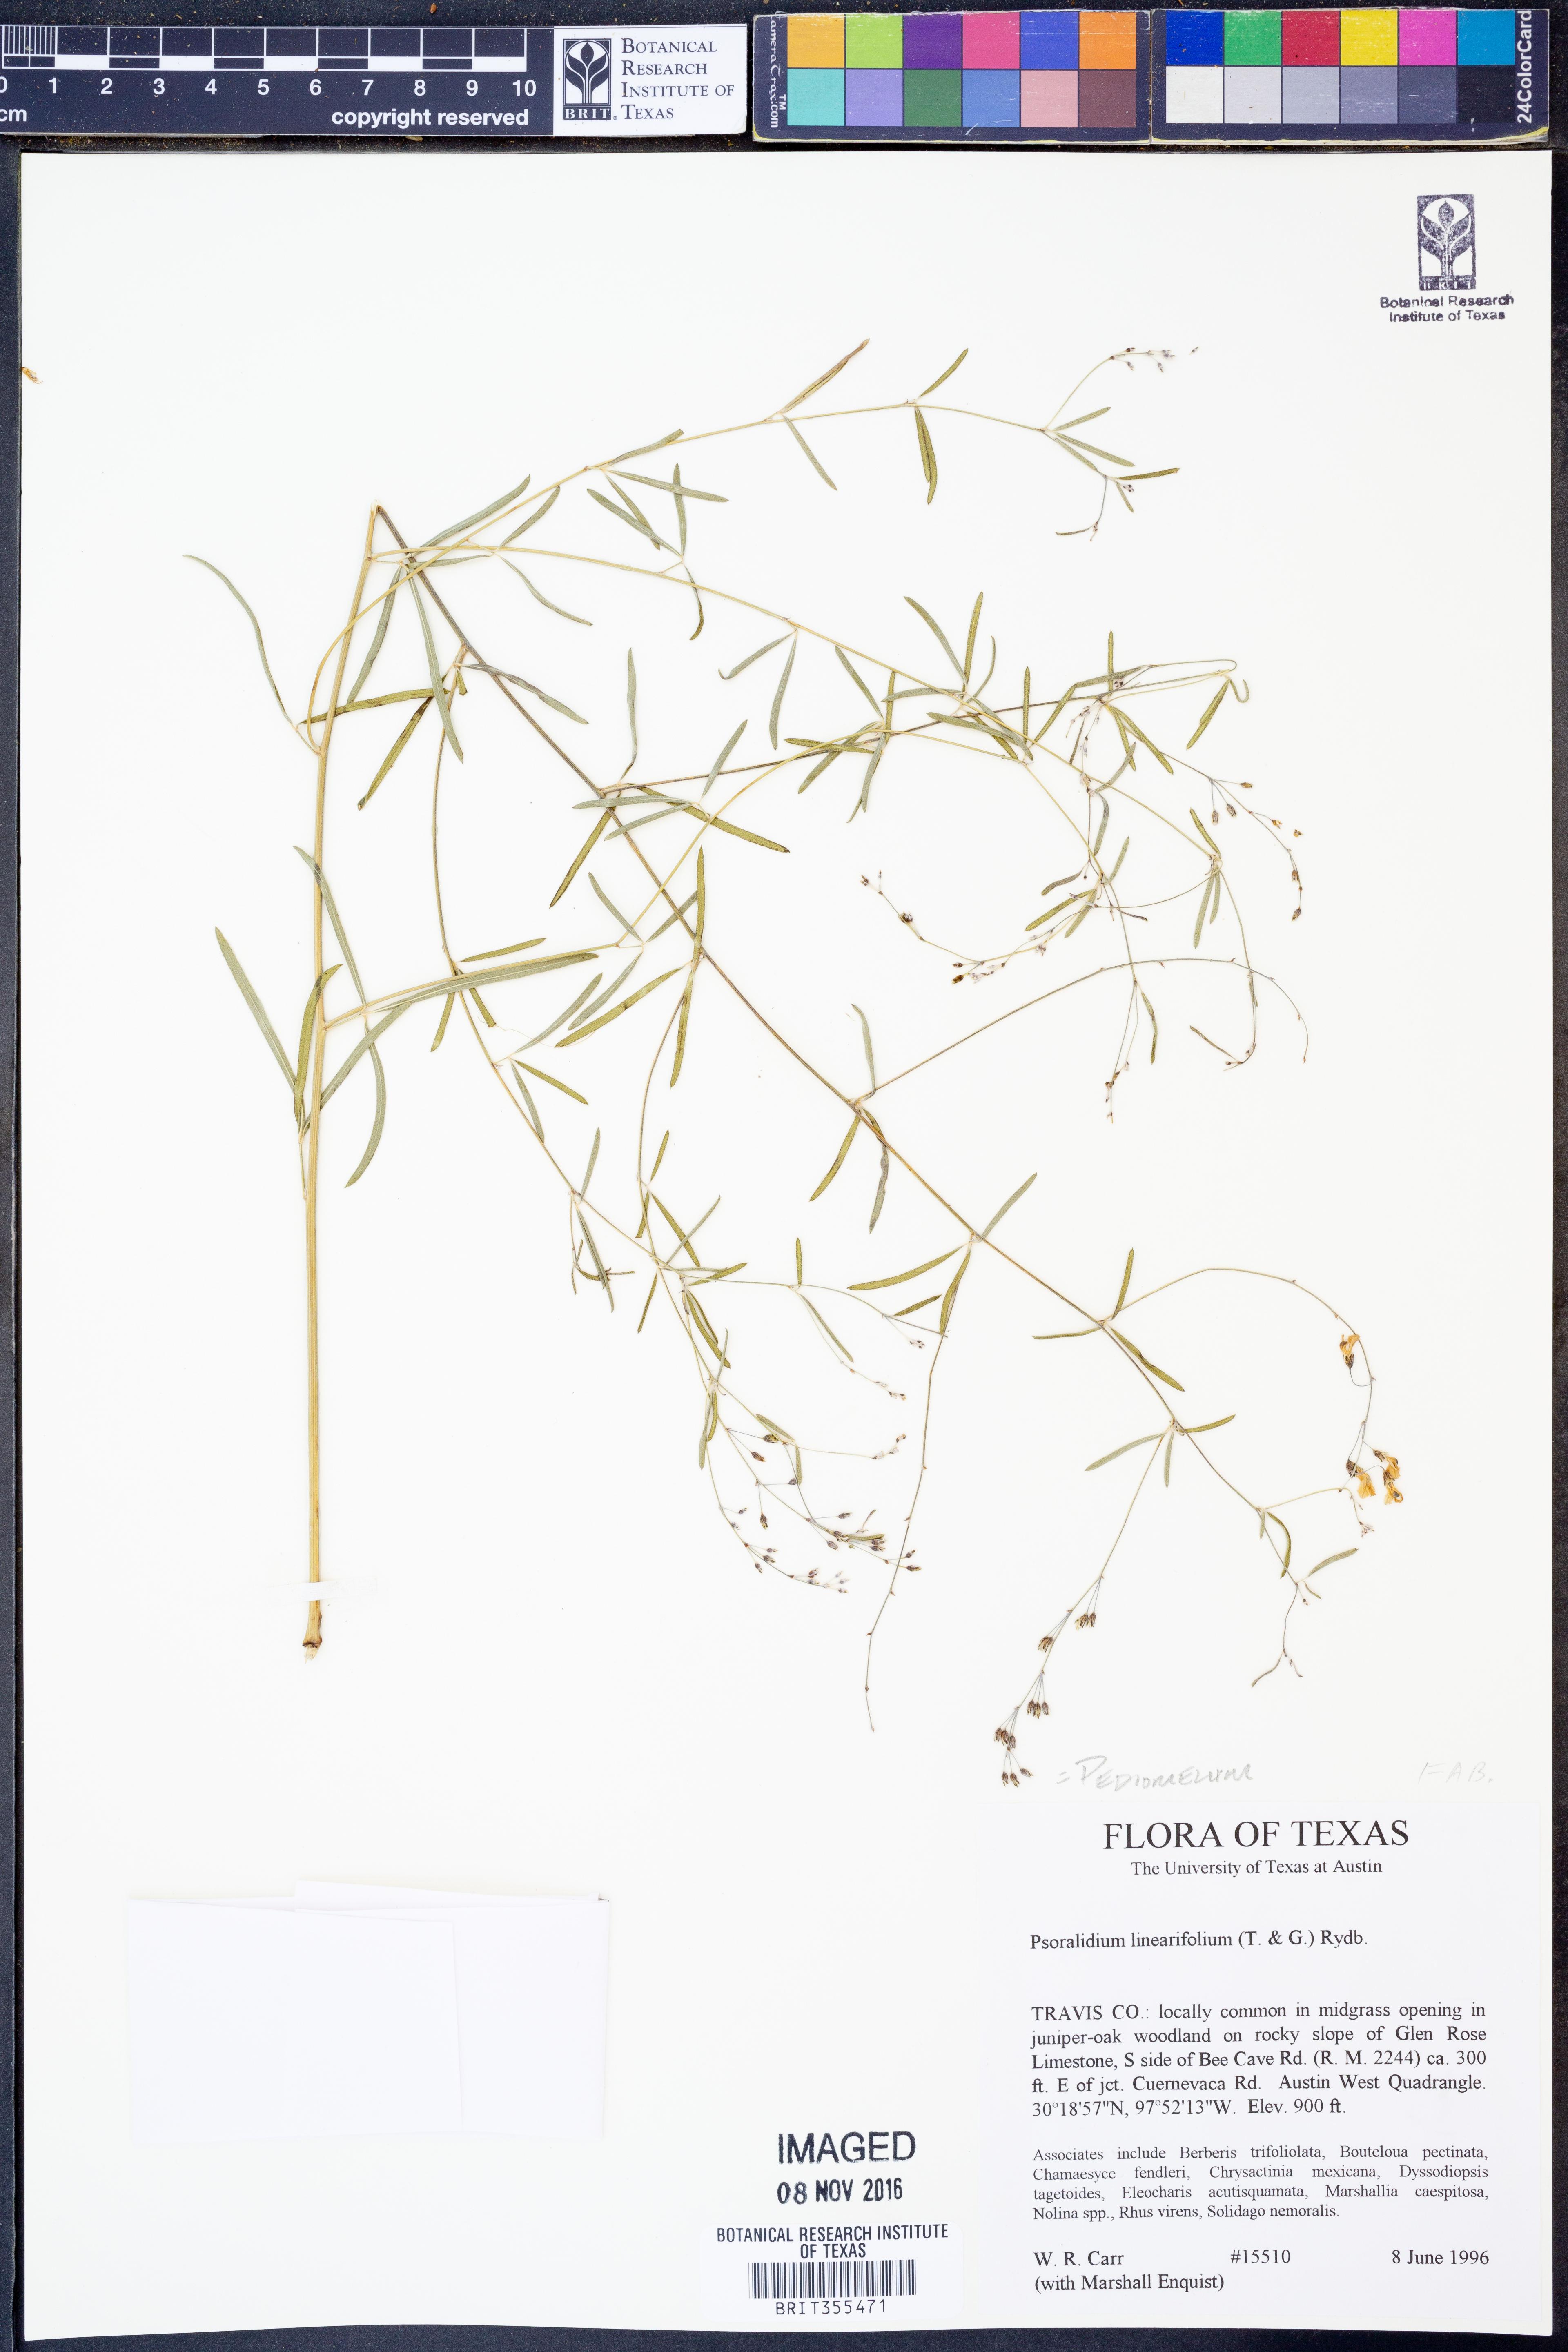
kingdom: Plantae
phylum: Tracheophyta
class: Magnoliopsida
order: Fabales
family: Fabaceae
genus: Pediomelum
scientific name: Pediomelum linearifolium
